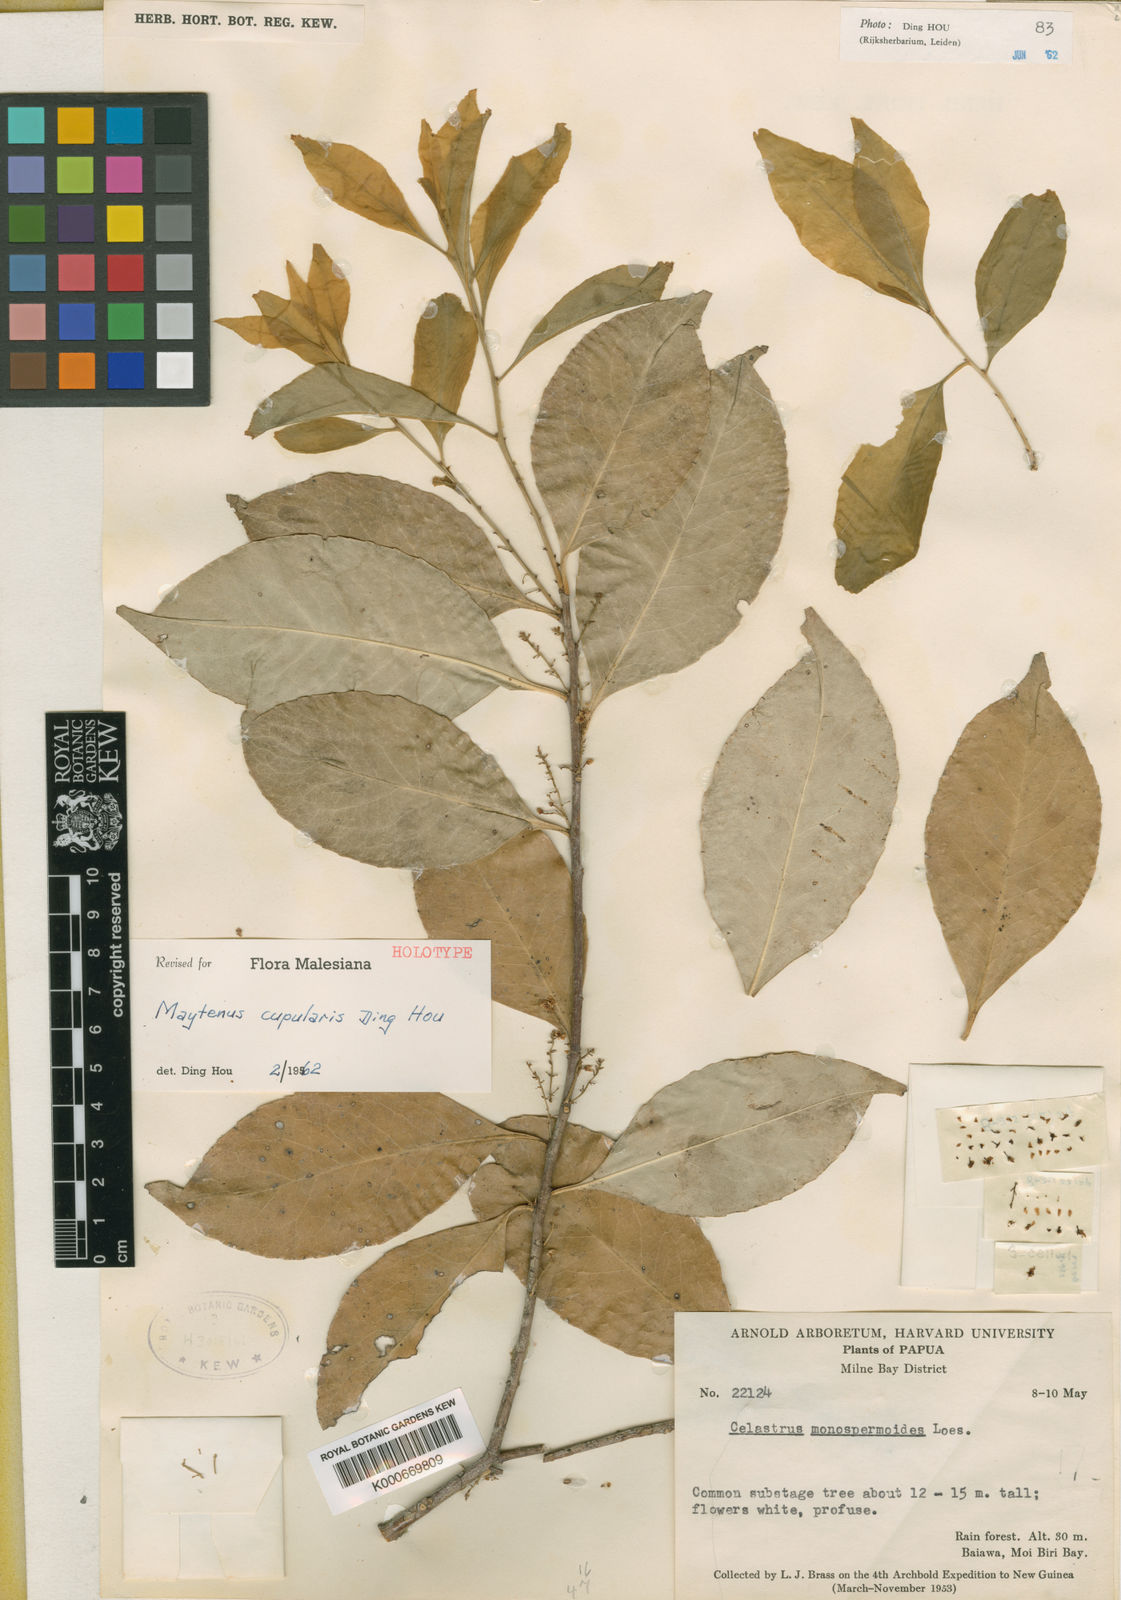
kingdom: Plantae
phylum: Tracheophyta
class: Magnoliopsida
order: Celastrales
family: Celastraceae
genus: Denhamia
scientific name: Denhamia cupularis
